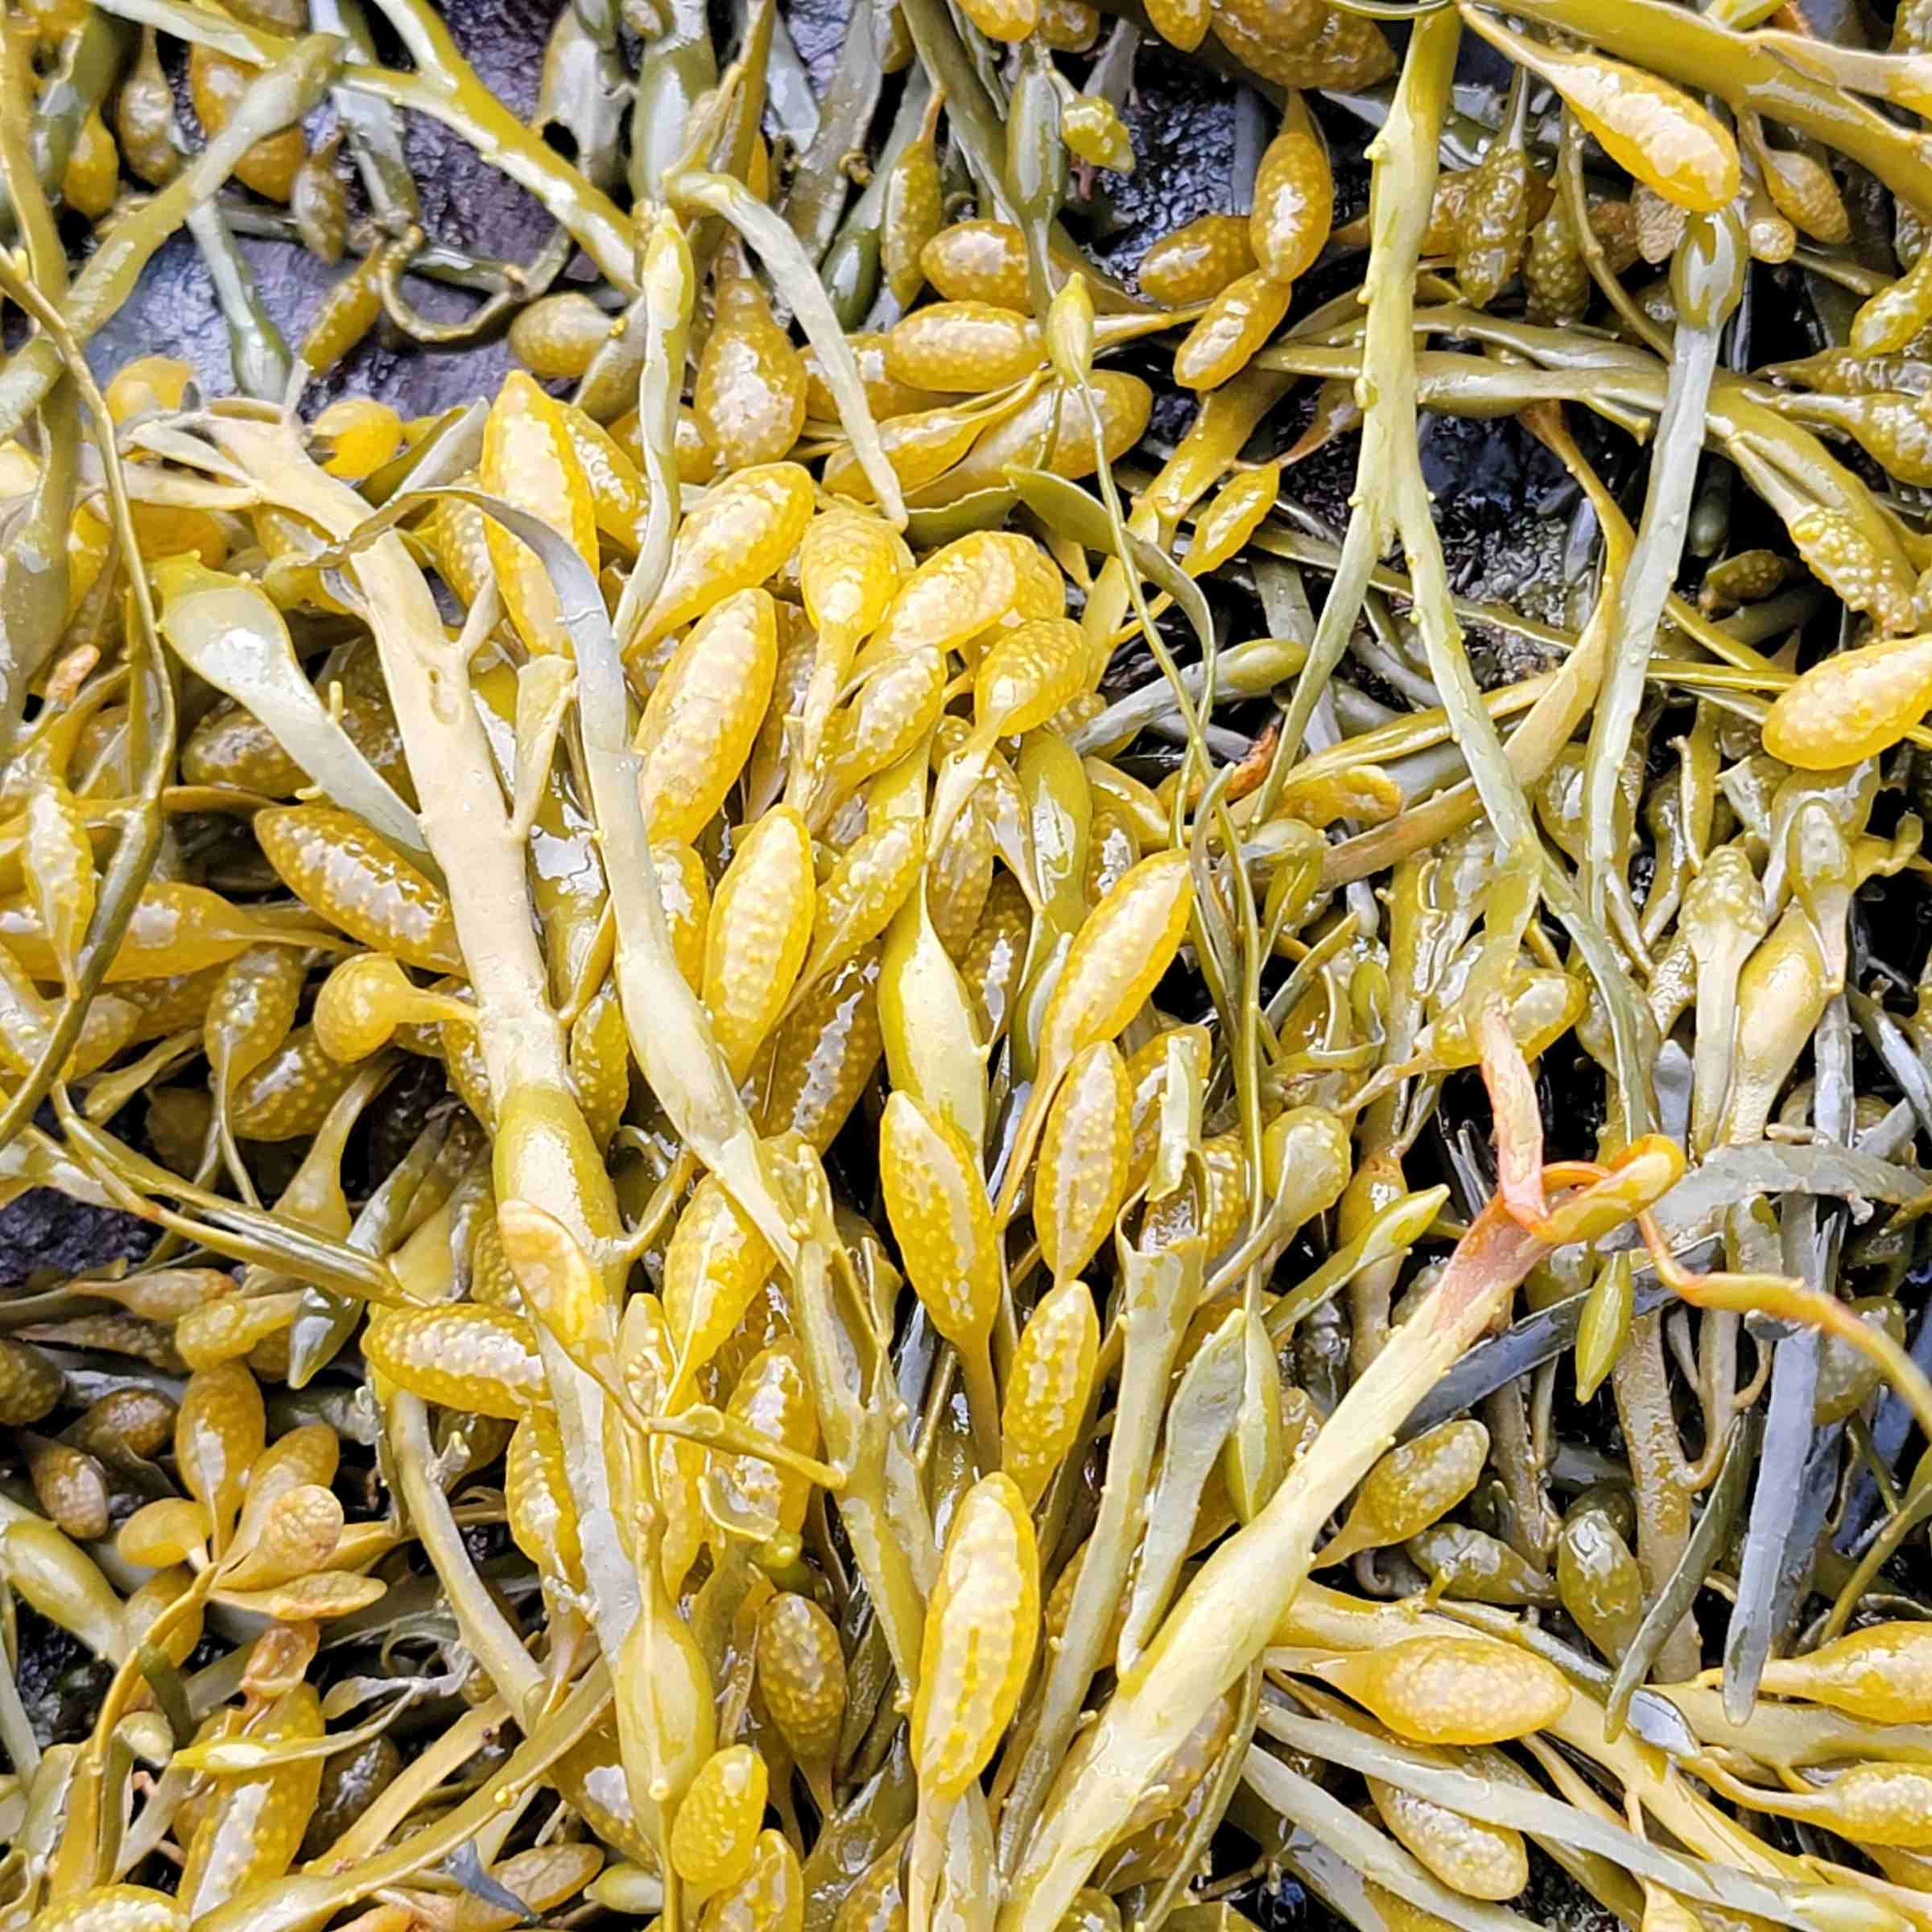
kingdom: Chromista
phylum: Ochrophyta
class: Phaeophyceae
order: Fucales
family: Fucaceae
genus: Ascophyllum
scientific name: Ascophyllum nodosum
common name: Rockweed
